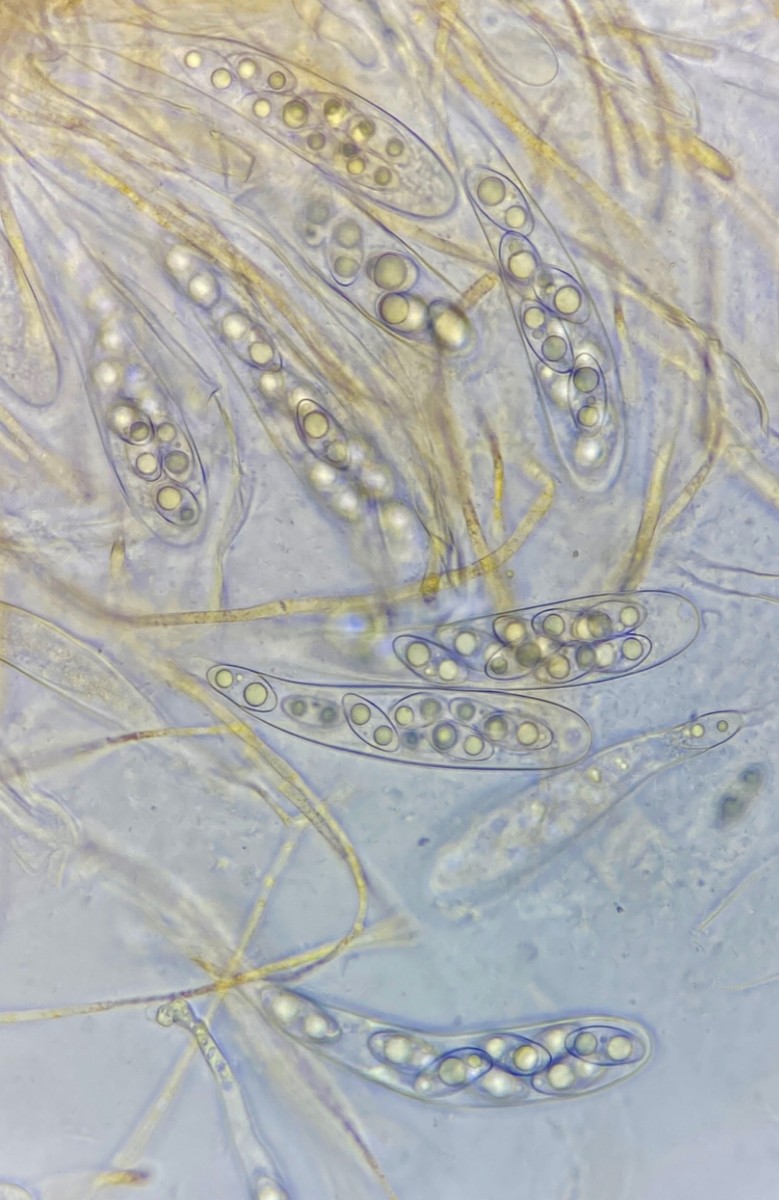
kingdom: Fungi
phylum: Ascomycota
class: Pezizomycetes
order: Pezizales
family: Pyronemataceae
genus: Octospora
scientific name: Octospora gemmicola
